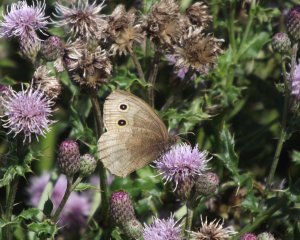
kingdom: Animalia
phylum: Arthropoda
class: Insecta
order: Lepidoptera
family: Nymphalidae
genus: Cercyonis
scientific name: Cercyonis pegala
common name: Common Wood-Nymph
